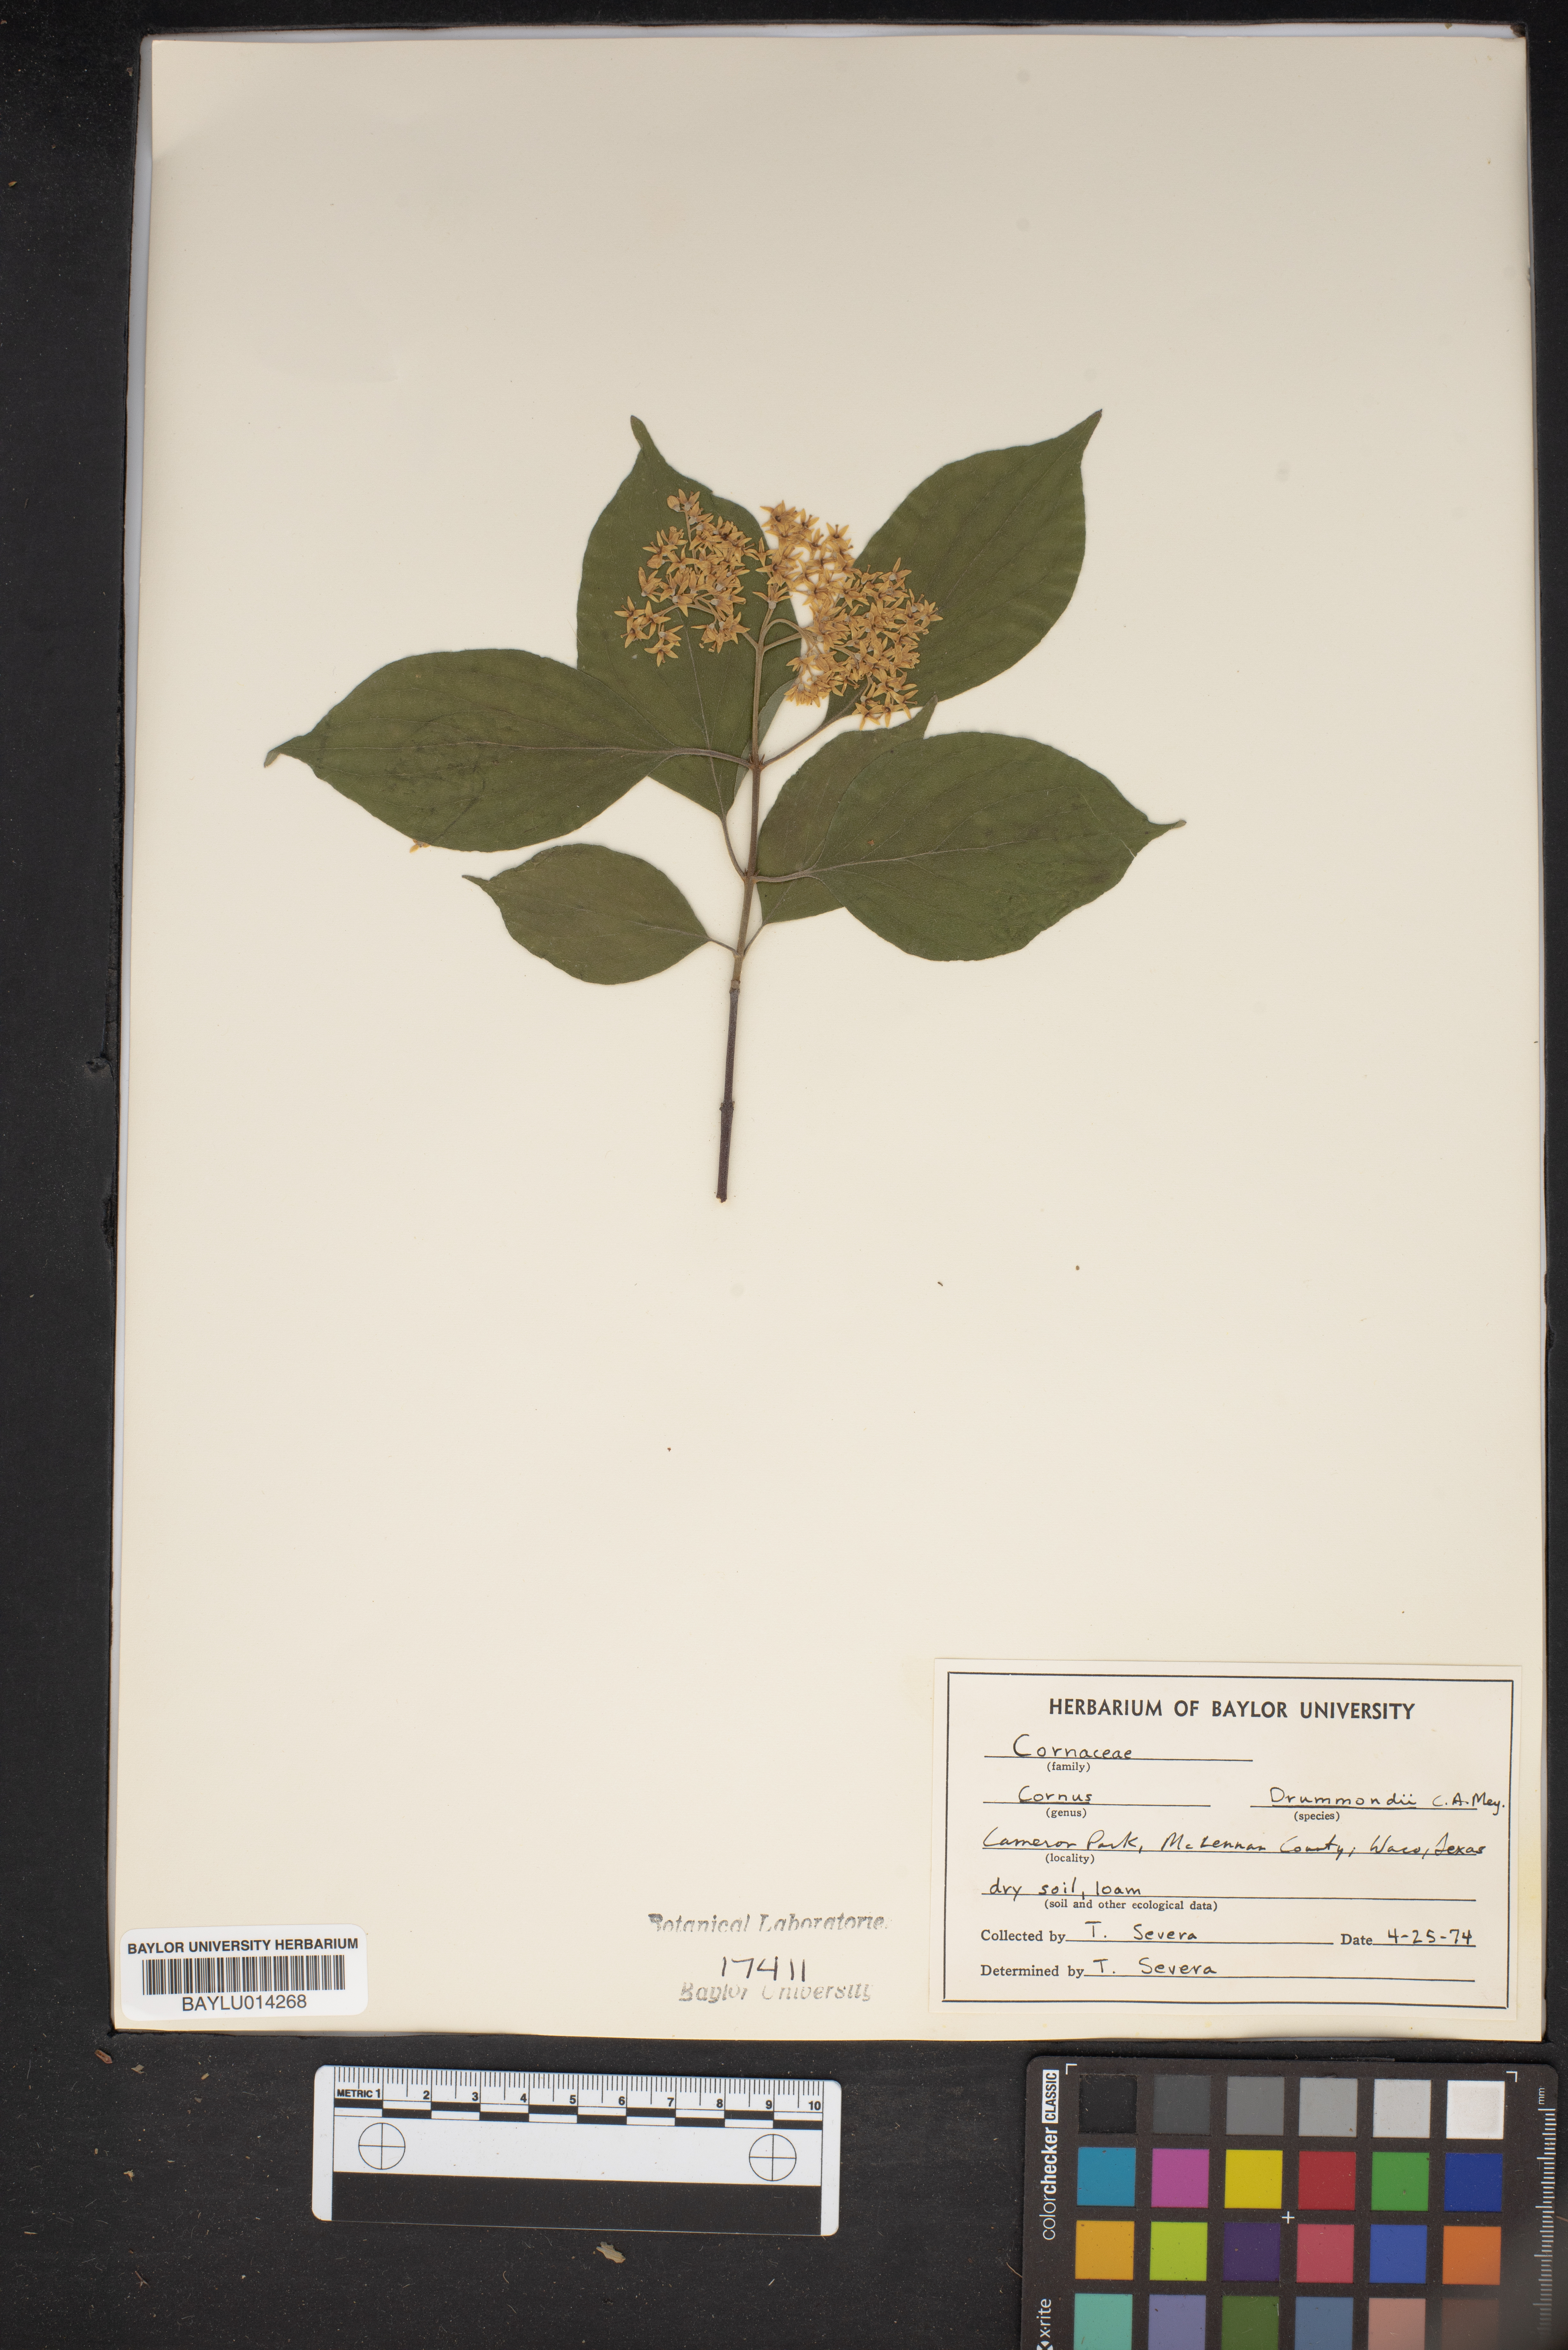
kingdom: Plantae
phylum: Tracheophyta
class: Magnoliopsida
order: Cornales
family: Cornaceae
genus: Cornus
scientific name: Cornus drummondii
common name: Rough-leaf dogwood
